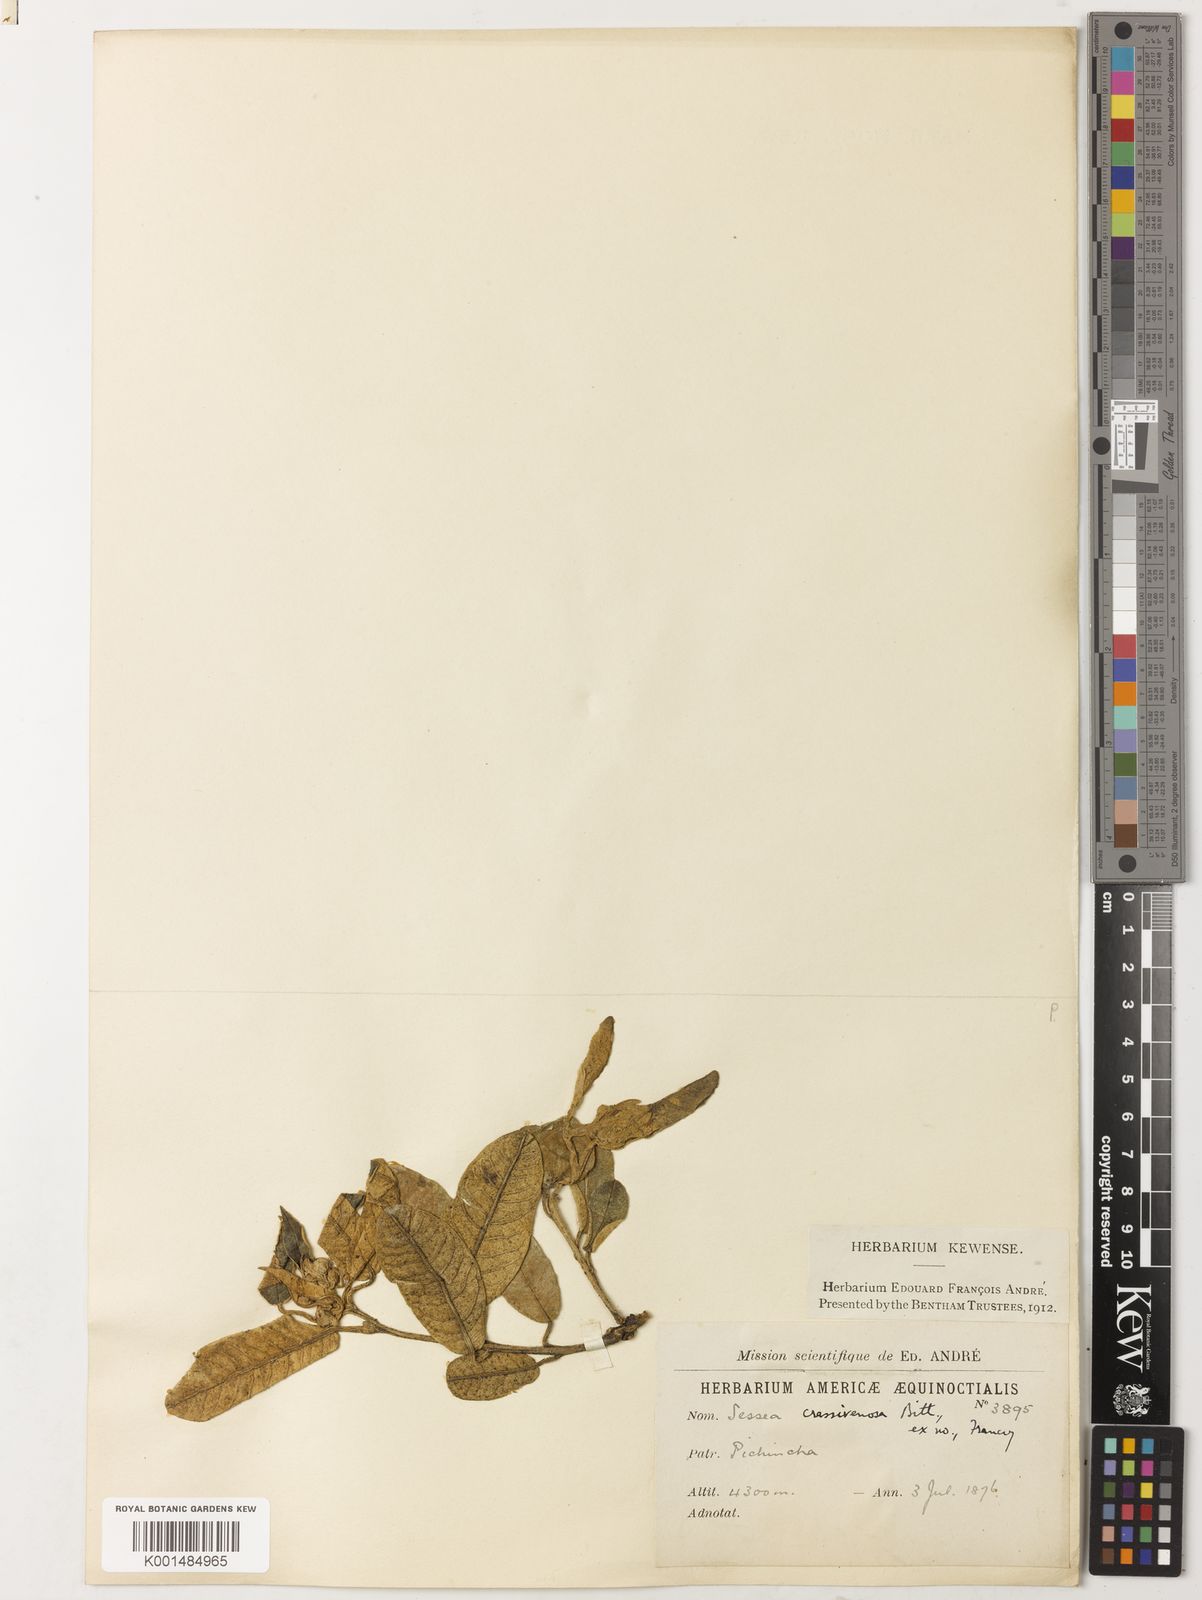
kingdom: Plantae
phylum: Tracheophyta
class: Magnoliopsida
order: Solanales
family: Solanaceae
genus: Sessea
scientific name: Sessea crassivenosa
